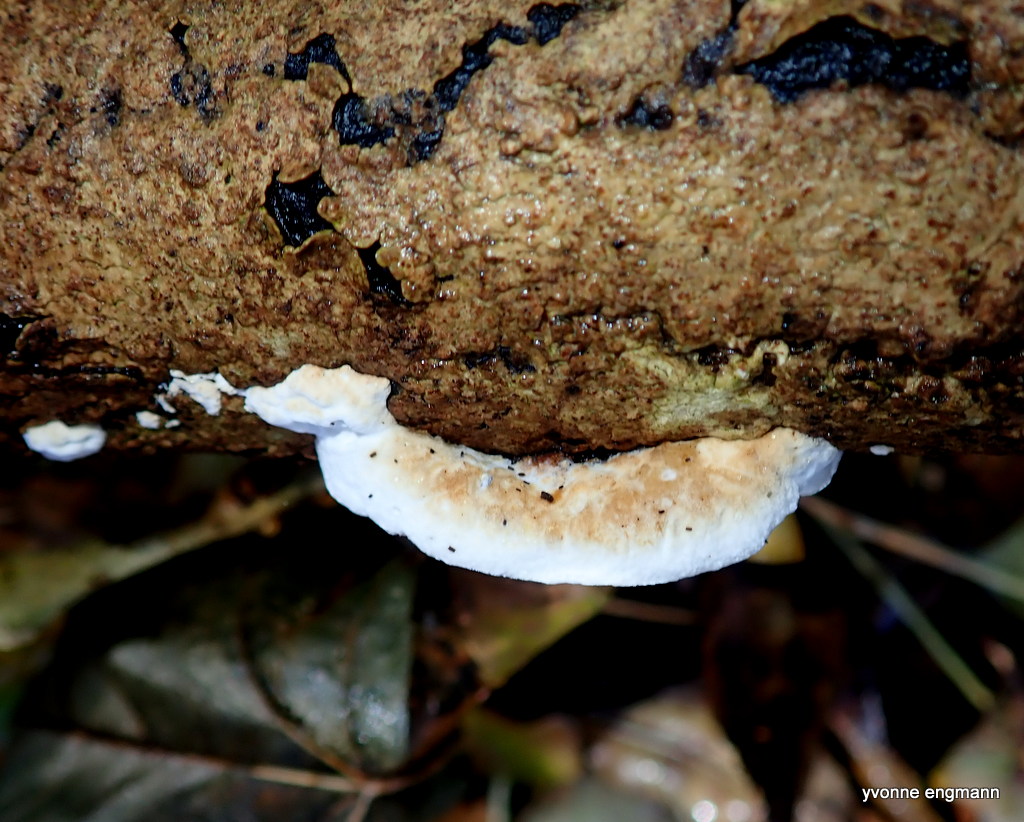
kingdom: Fungi
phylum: Basidiomycota
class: Agaricomycetes
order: Polyporales
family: Incrustoporiaceae
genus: Skeletocutis
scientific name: Skeletocutis nemoralis
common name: stor krystalporesvamp
